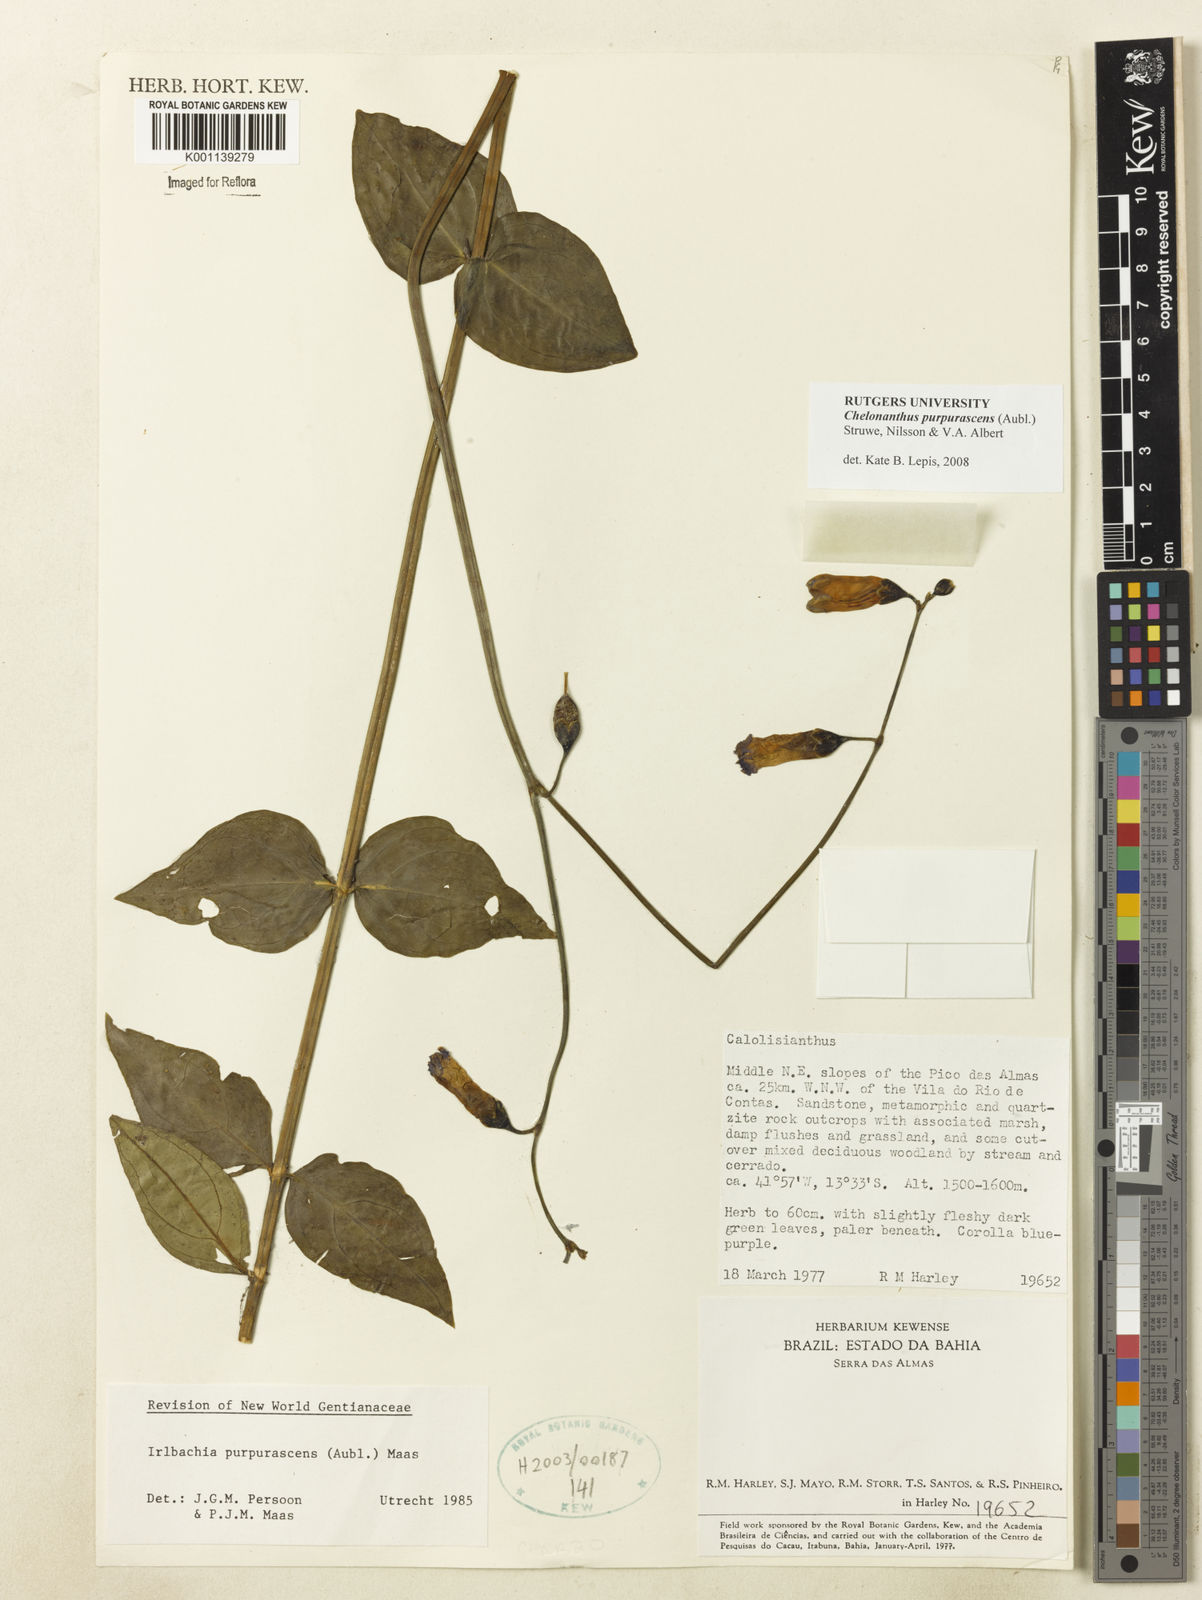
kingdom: Plantae
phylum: Tracheophyta
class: Magnoliopsida
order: Gentianales
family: Gentianaceae
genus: Chelonanthus
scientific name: Chelonanthus purpurascens
